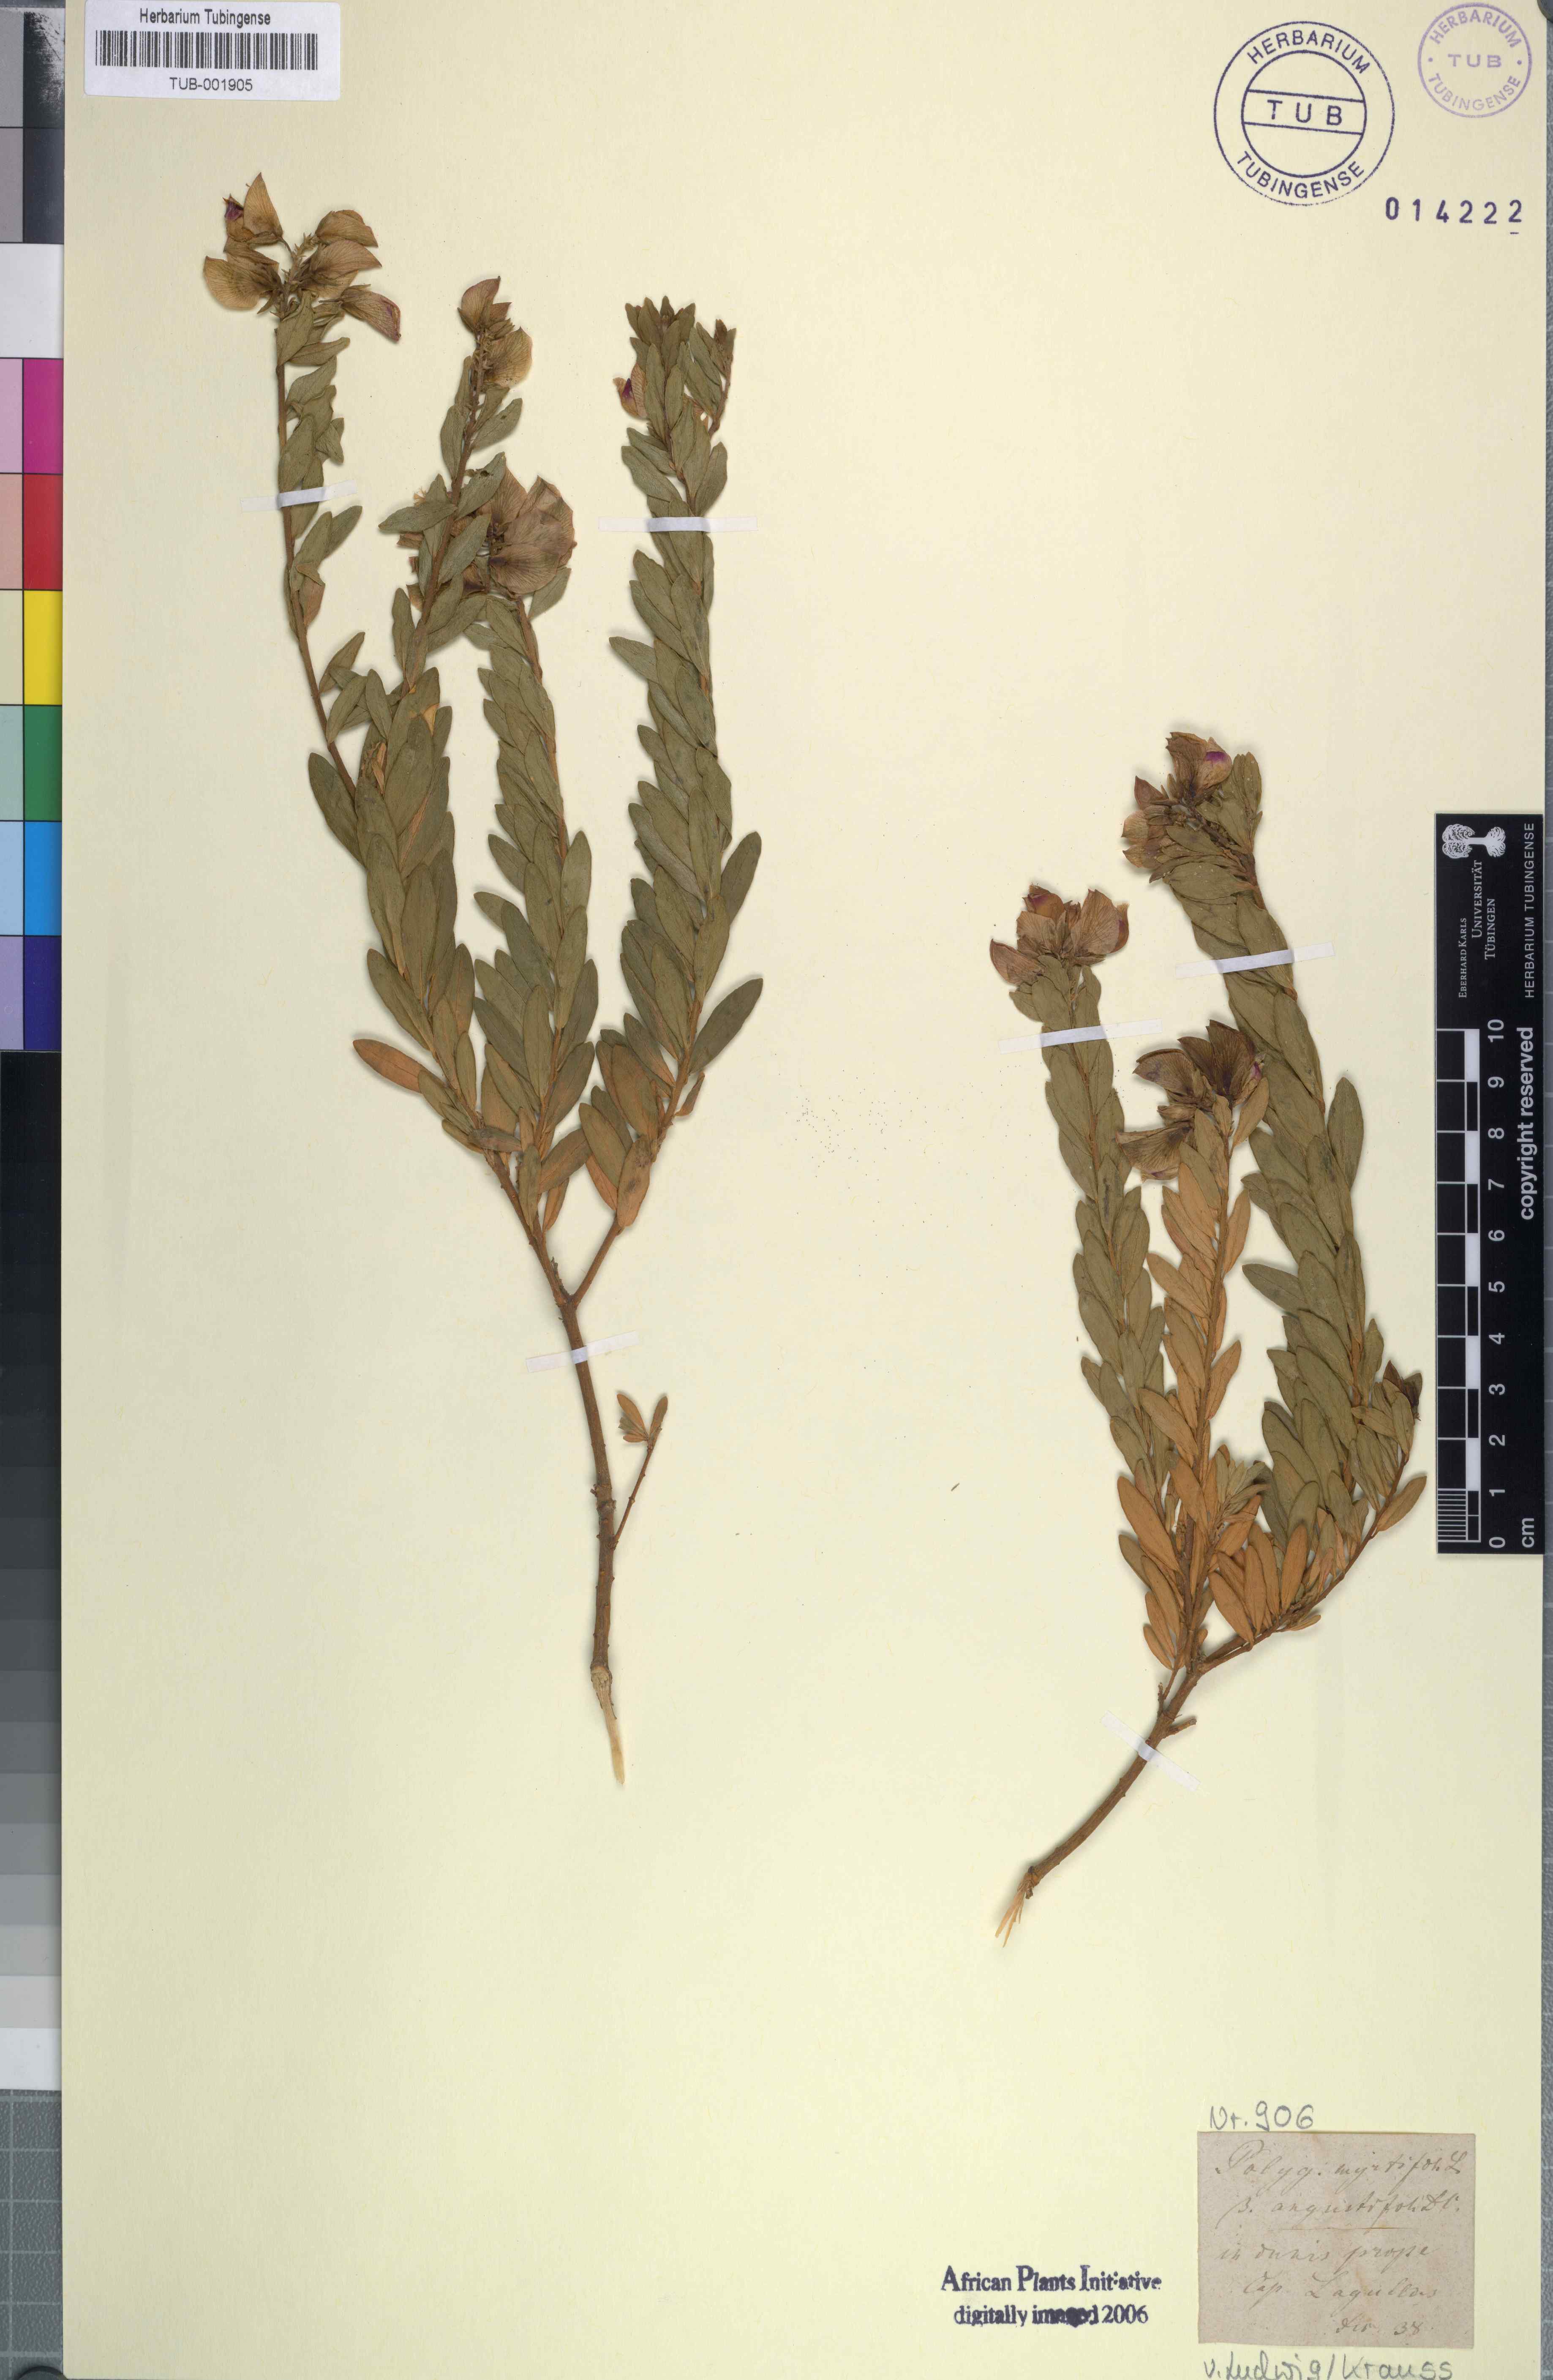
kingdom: Plantae
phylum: Tracheophyta
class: Magnoliopsida
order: Fabales
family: Polygalaceae
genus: Polygala
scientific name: Polygala myrtifolia
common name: Myrtle-leaf milkwort
